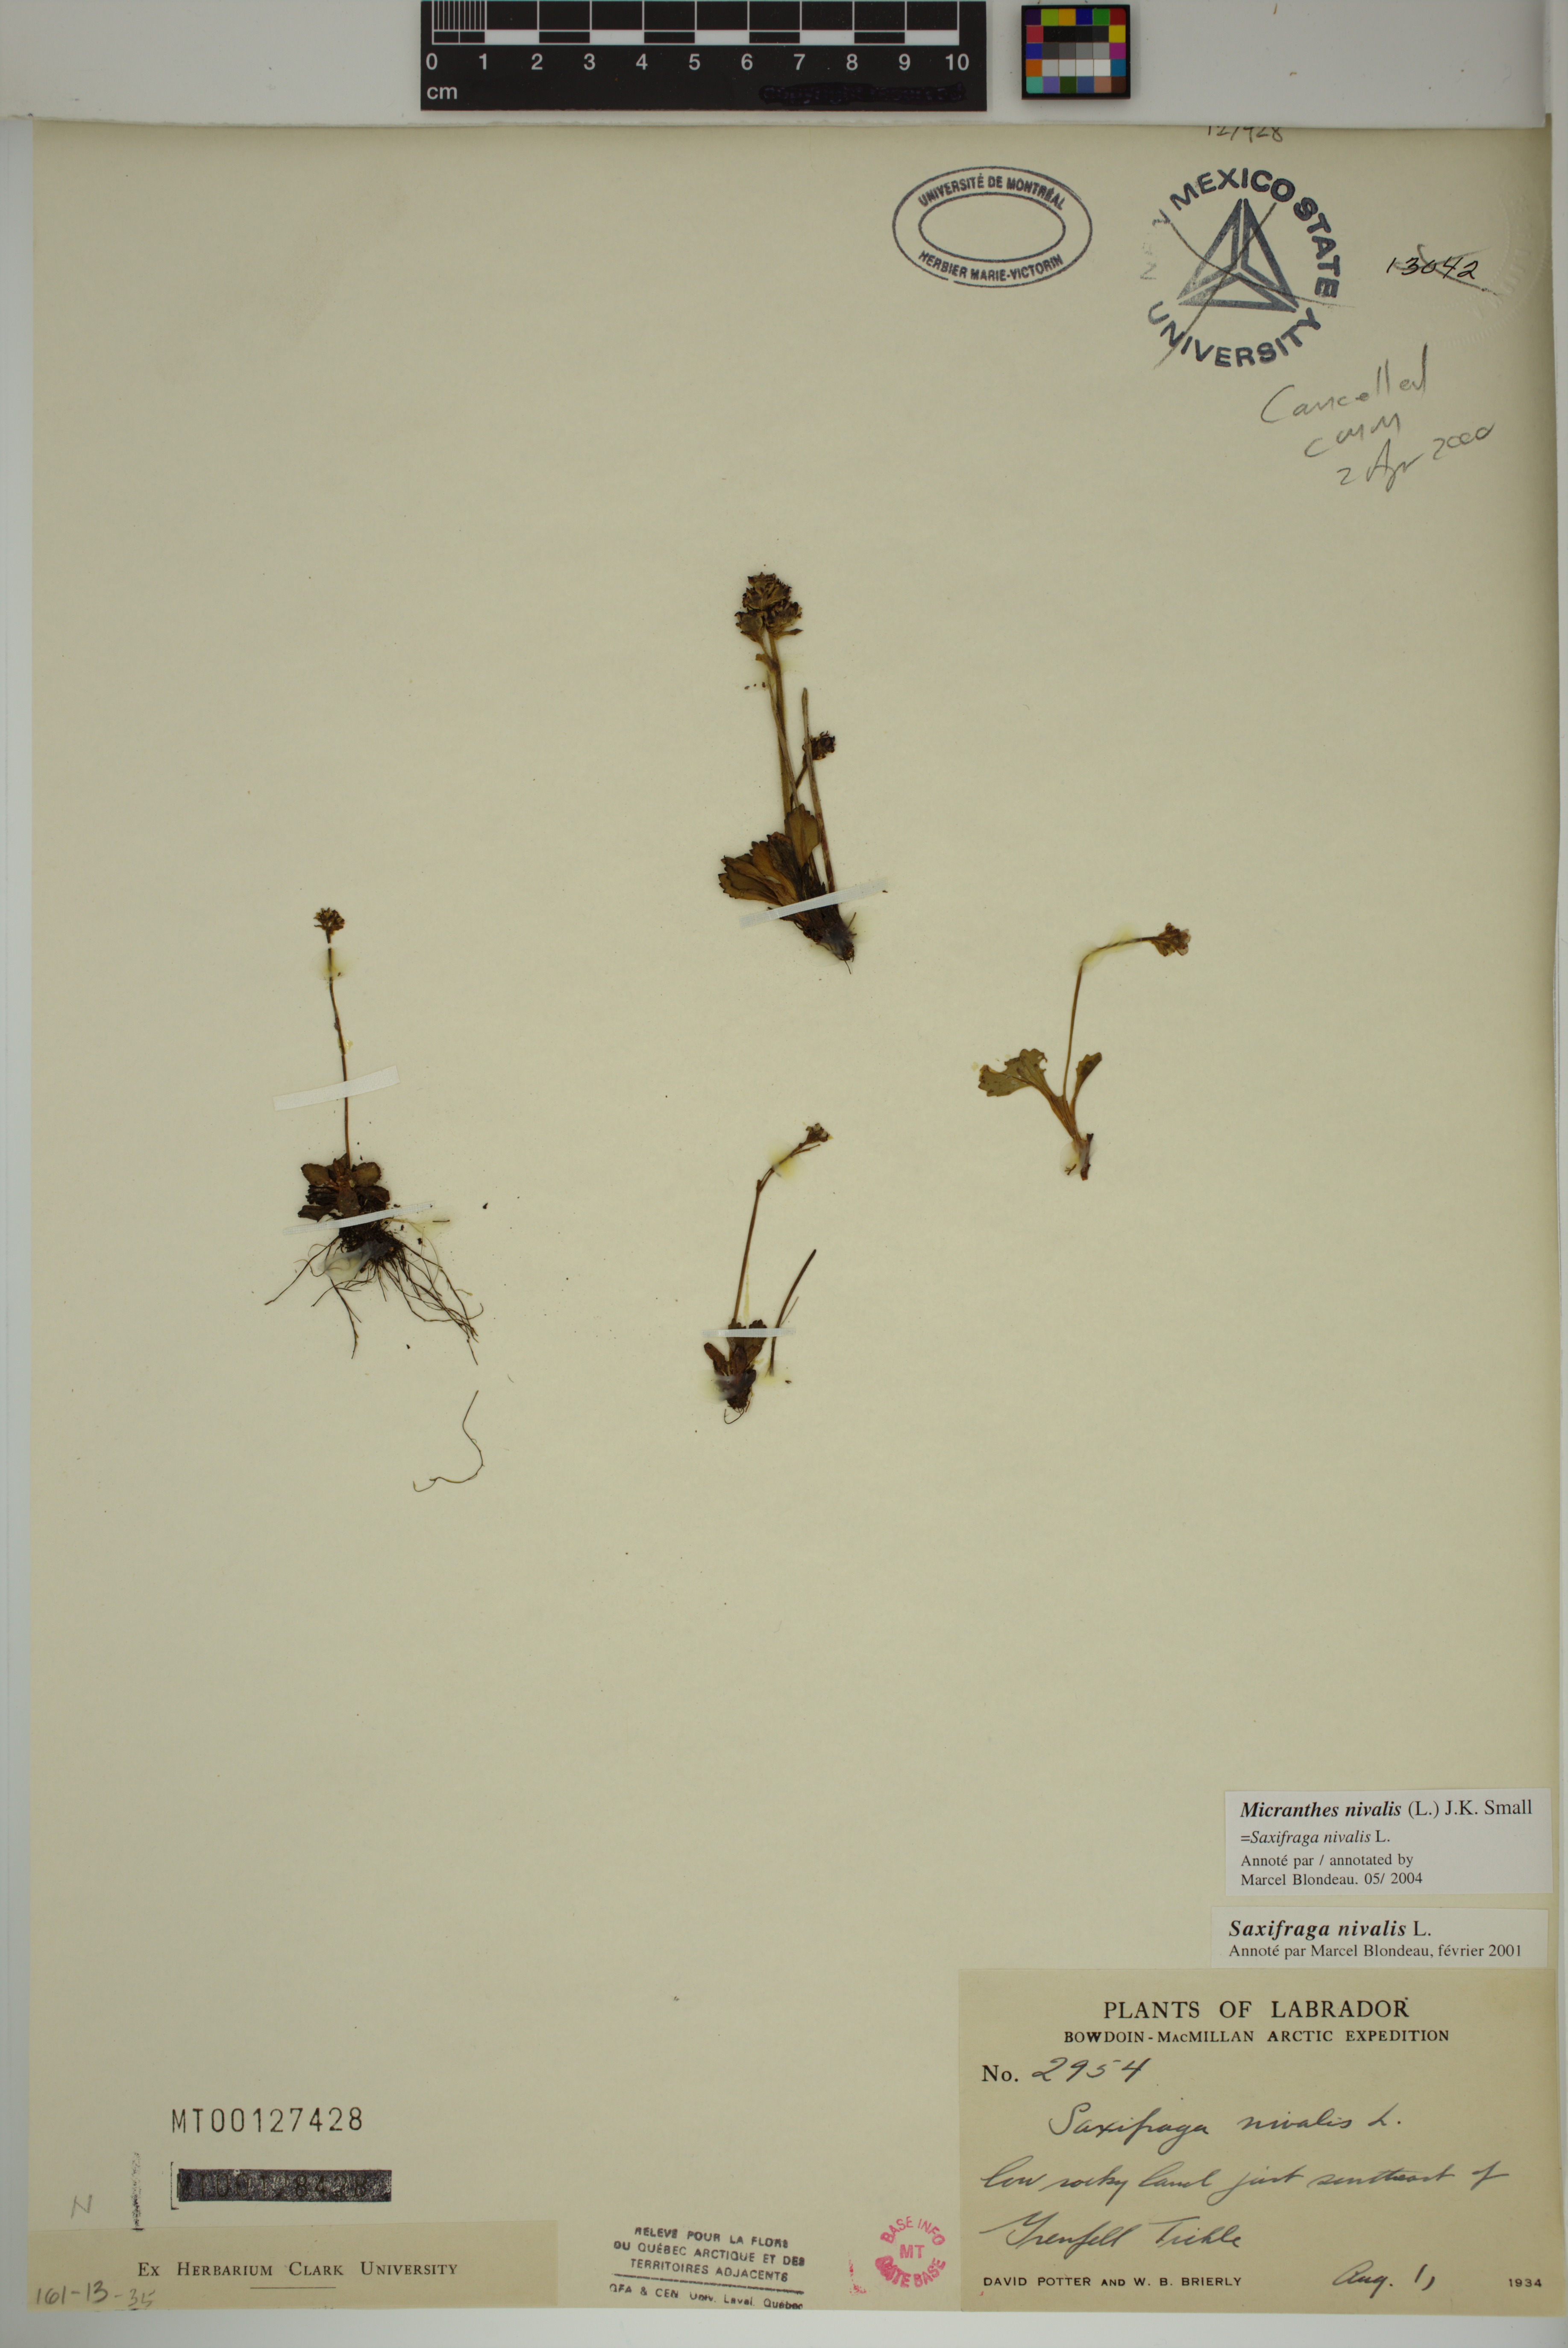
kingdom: Plantae
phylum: Tracheophyta
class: Magnoliopsida
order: Saxifragales
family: Saxifragaceae
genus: Micranthes
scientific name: Micranthes nivalis
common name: Alpine saxifrage
